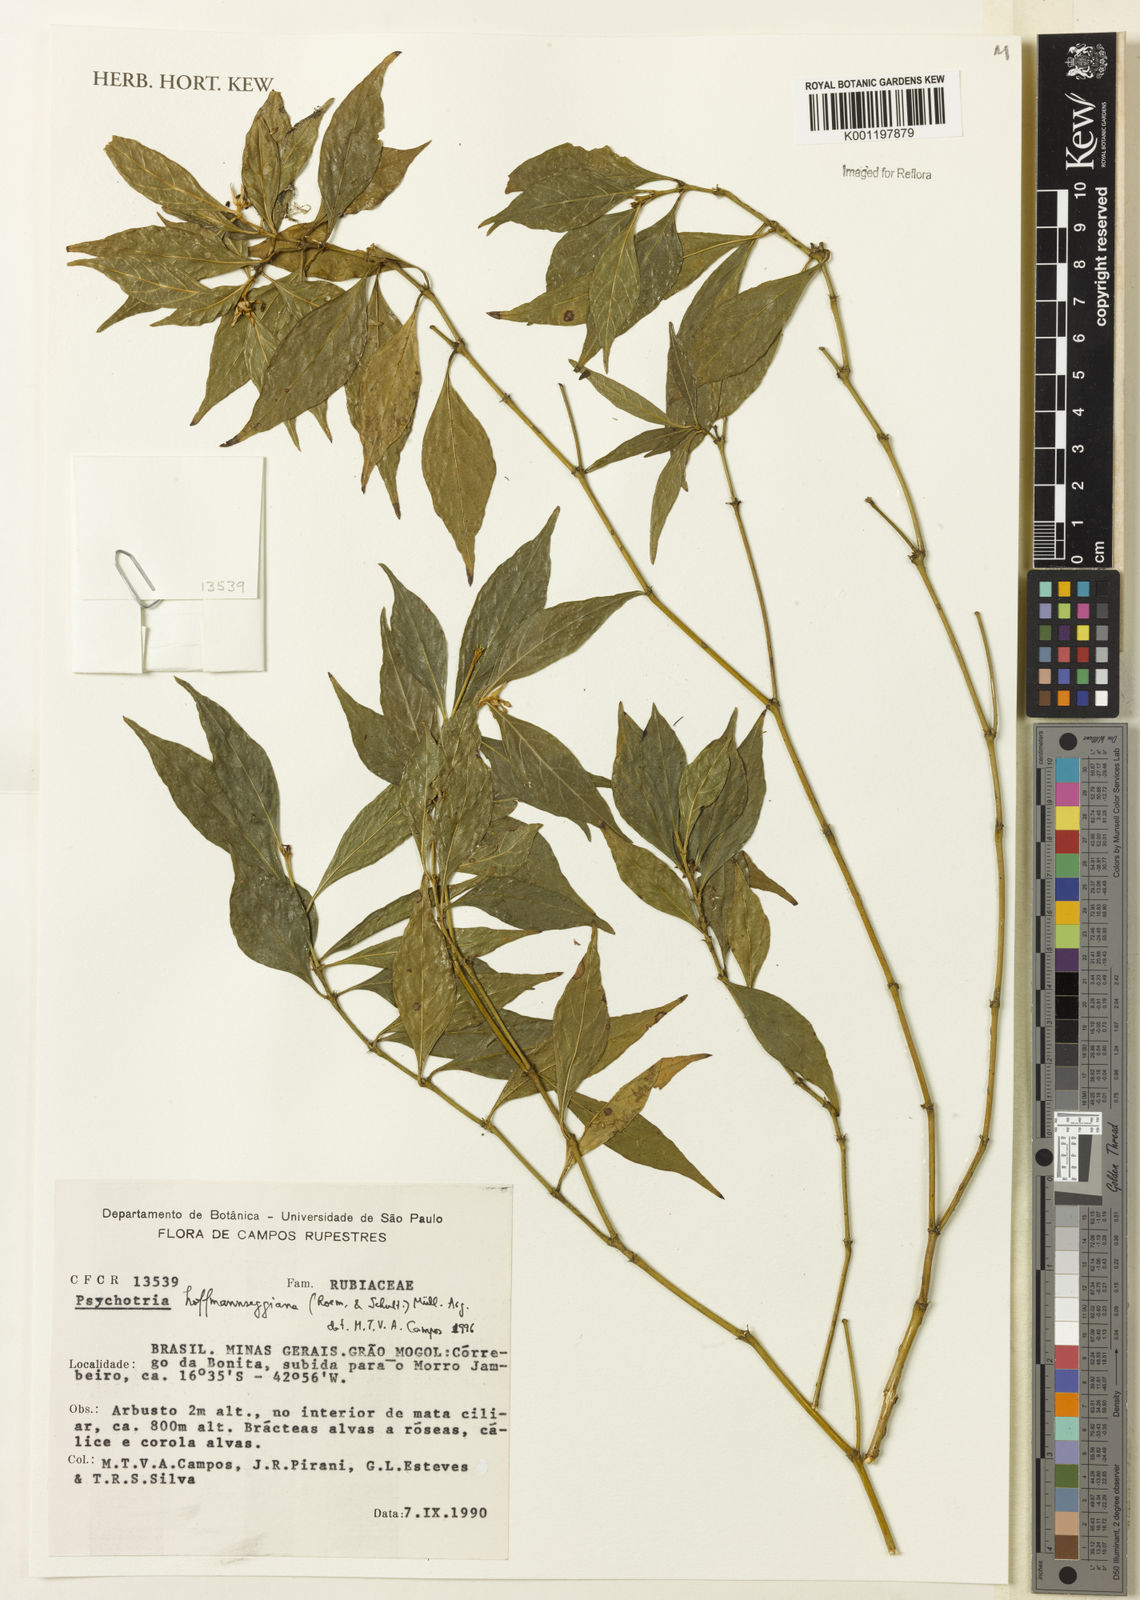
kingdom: Plantae
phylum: Tracheophyta
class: Magnoliopsida
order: Gentianales
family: Rubiaceae
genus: Psychotria
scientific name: Psychotria
